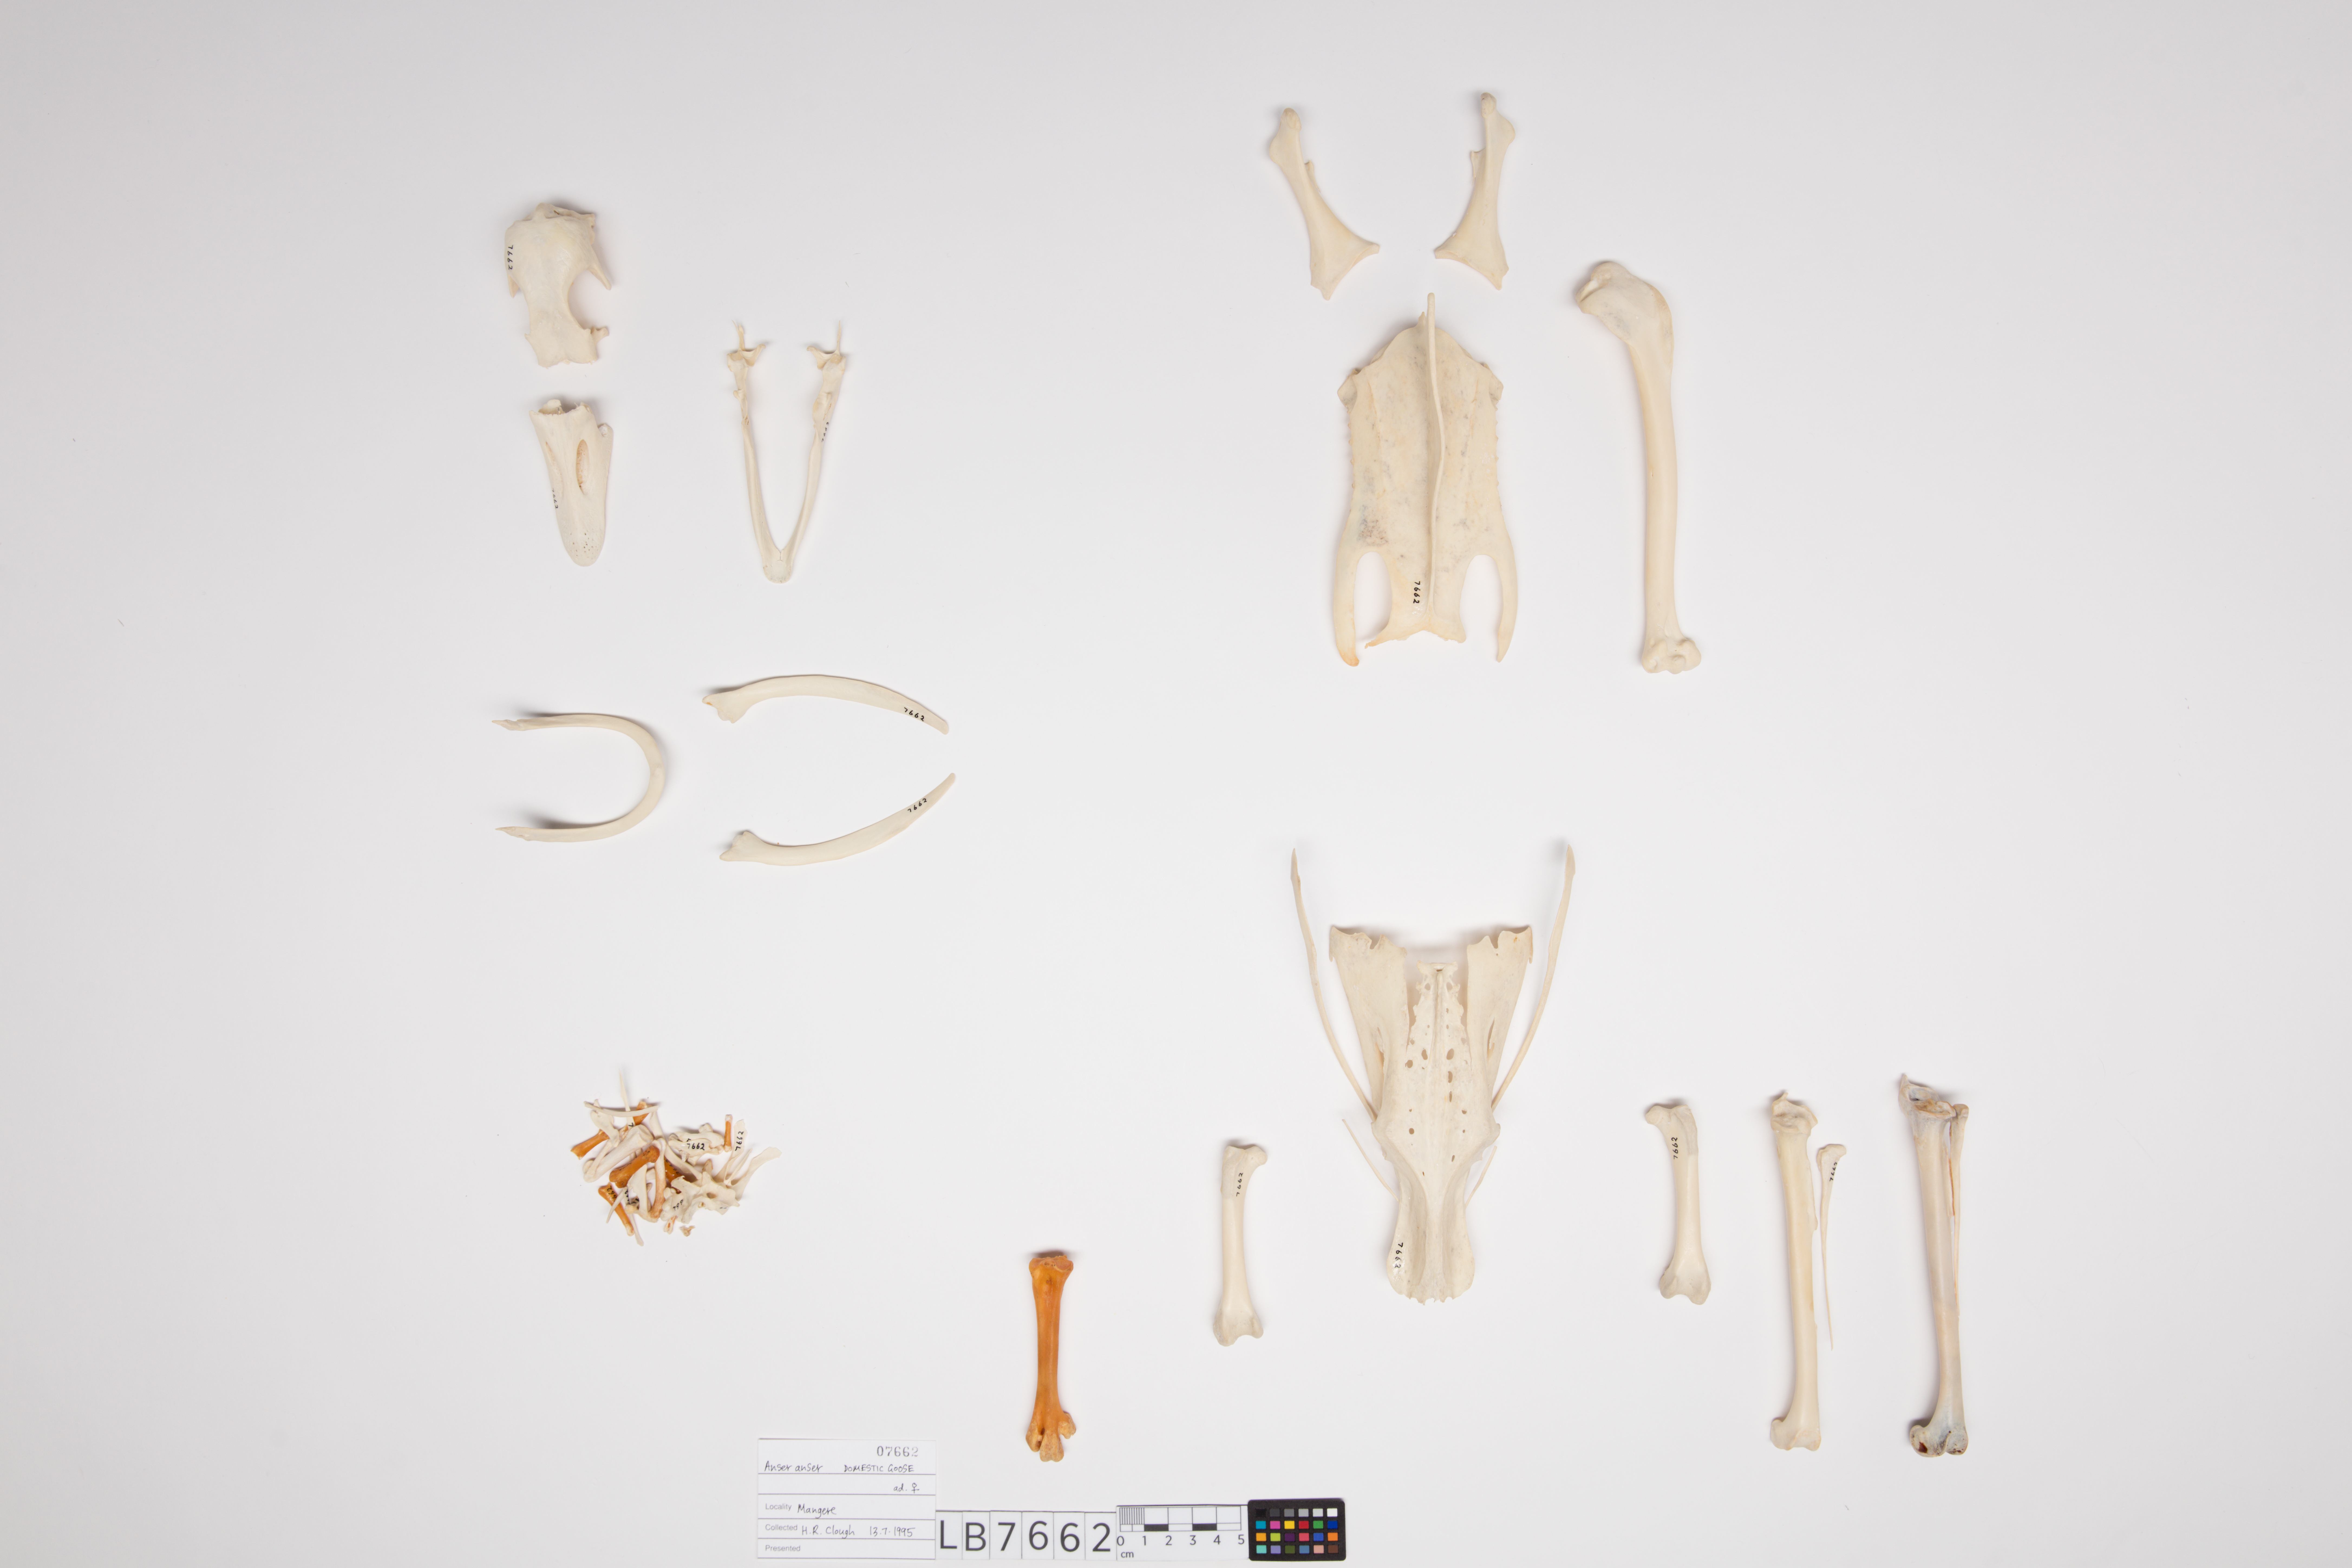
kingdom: Animalia
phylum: Chordata
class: Aves
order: Anseriformes
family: Anatidae
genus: Anser
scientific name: Anser
